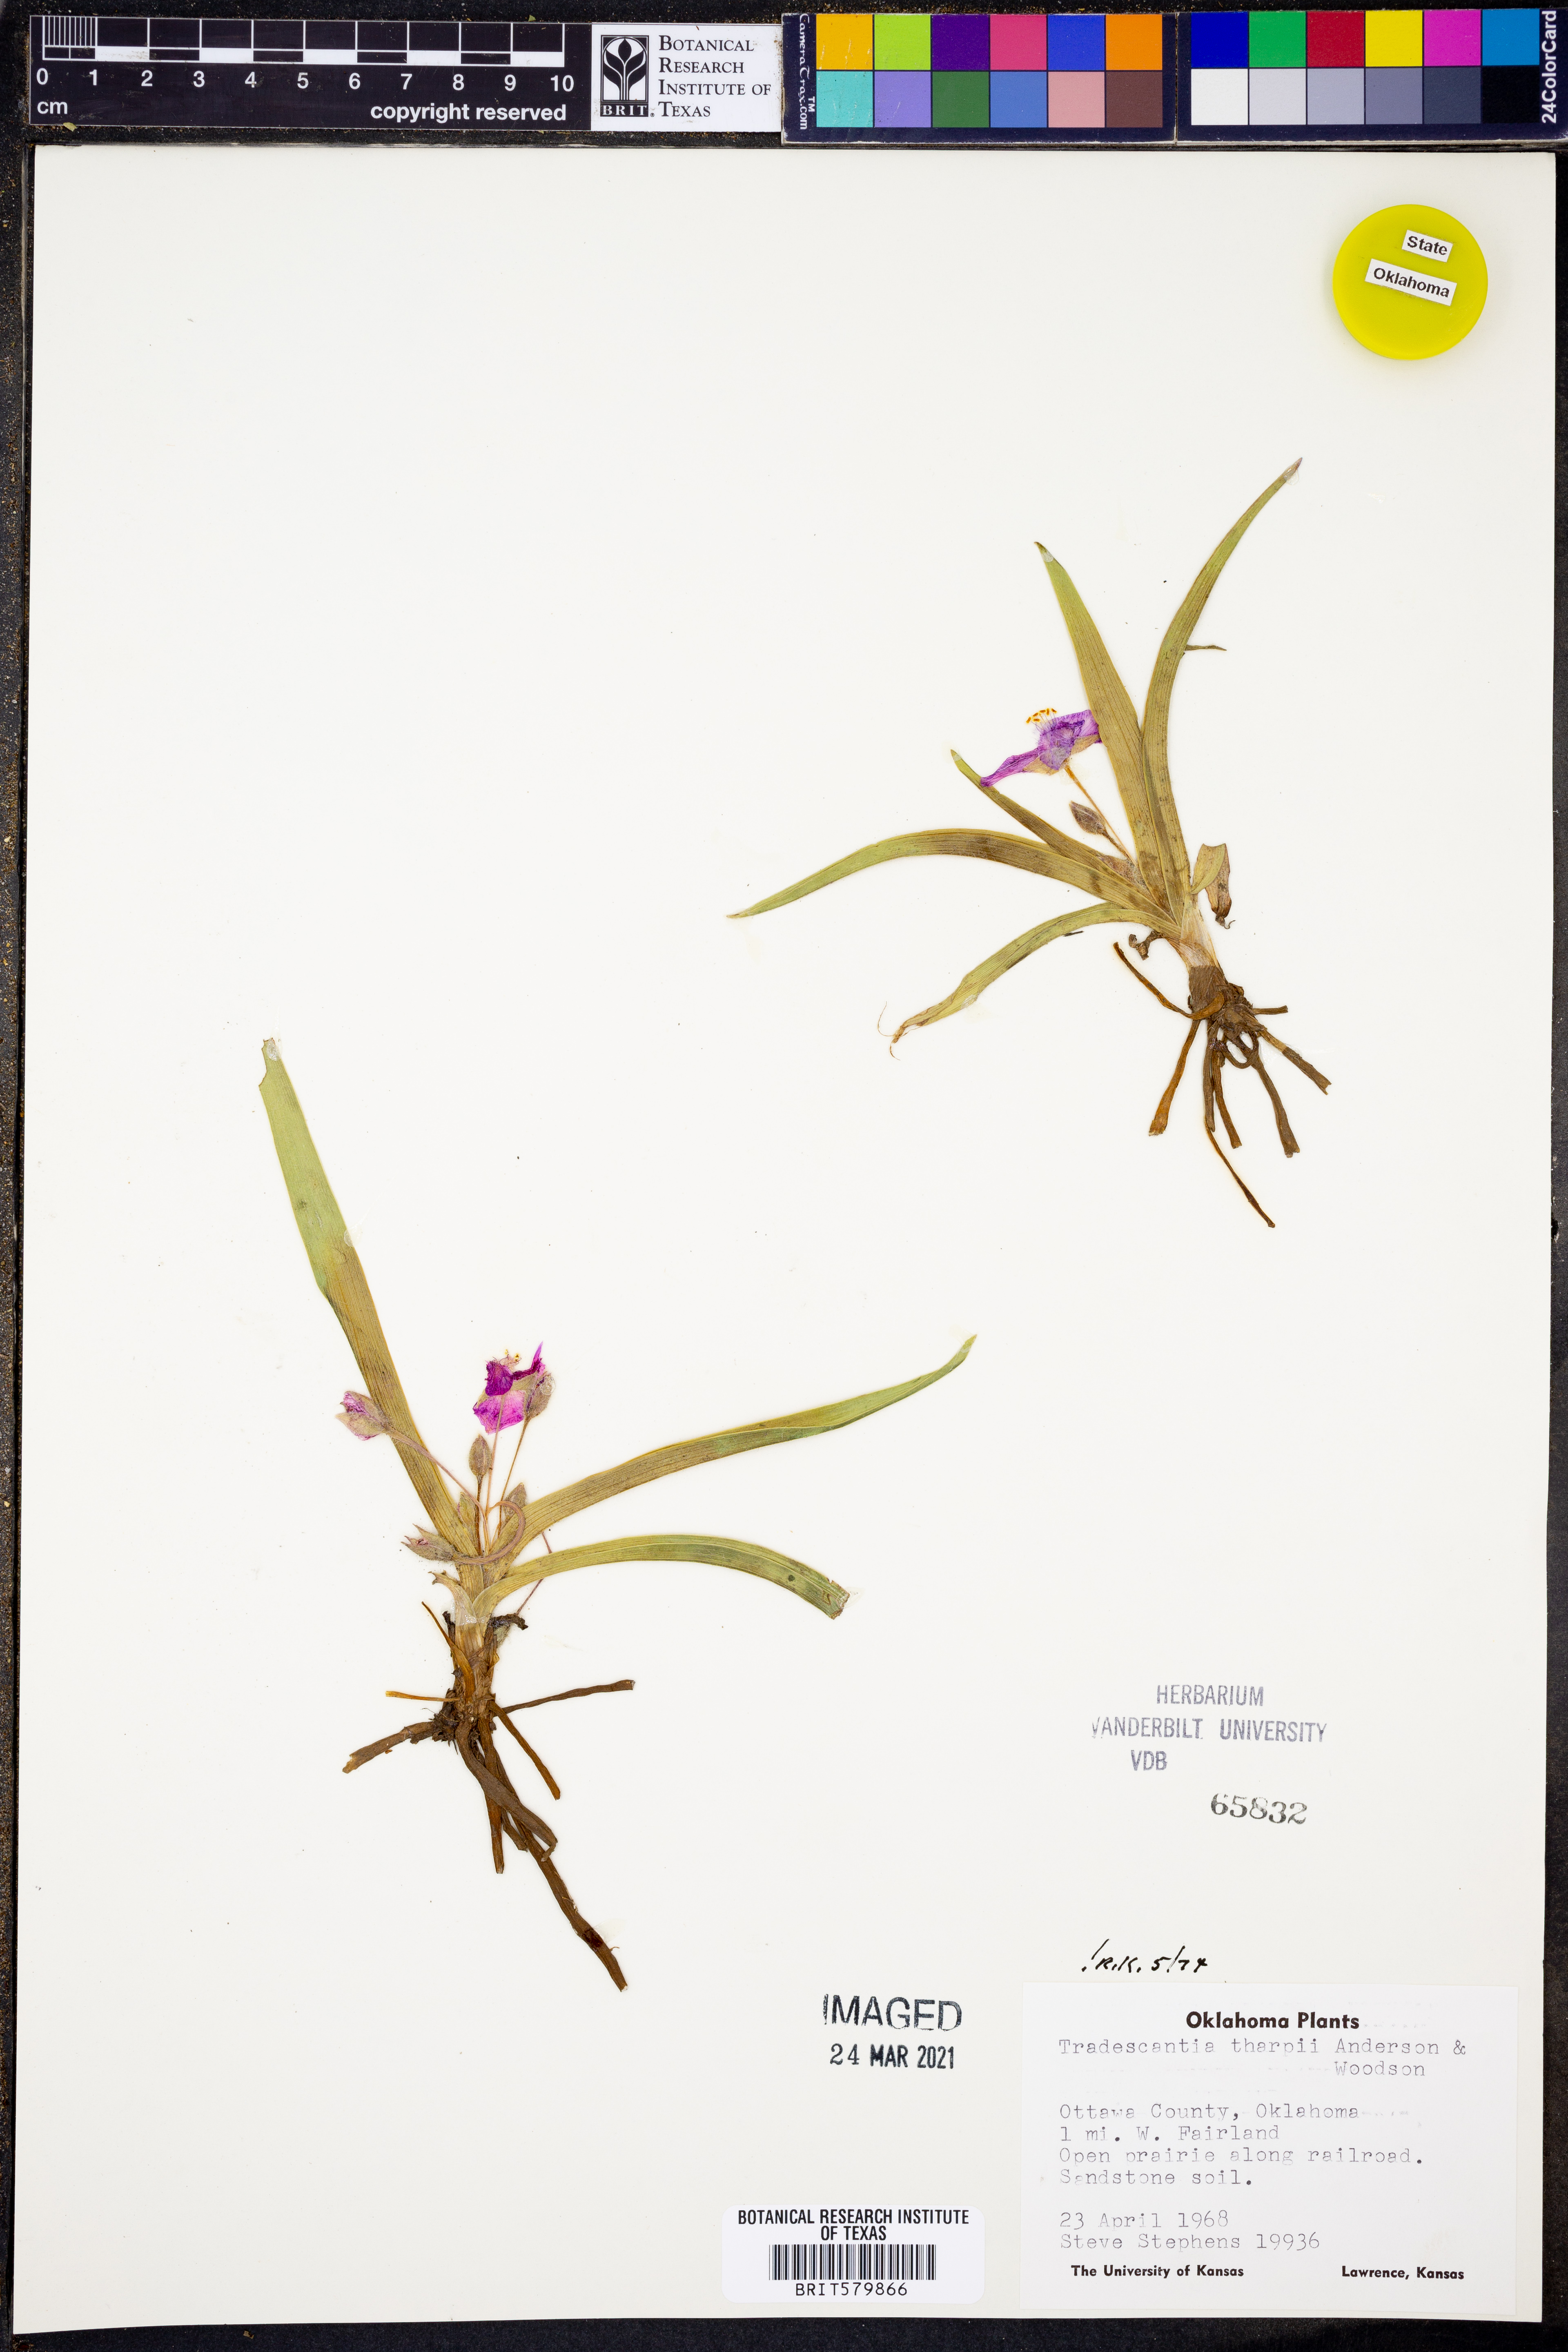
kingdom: Plantae
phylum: Tracheophyta
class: Liliopsida
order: Commelinales
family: Commelinaceae
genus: Tradescantia
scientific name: Tradescantia tharpii
